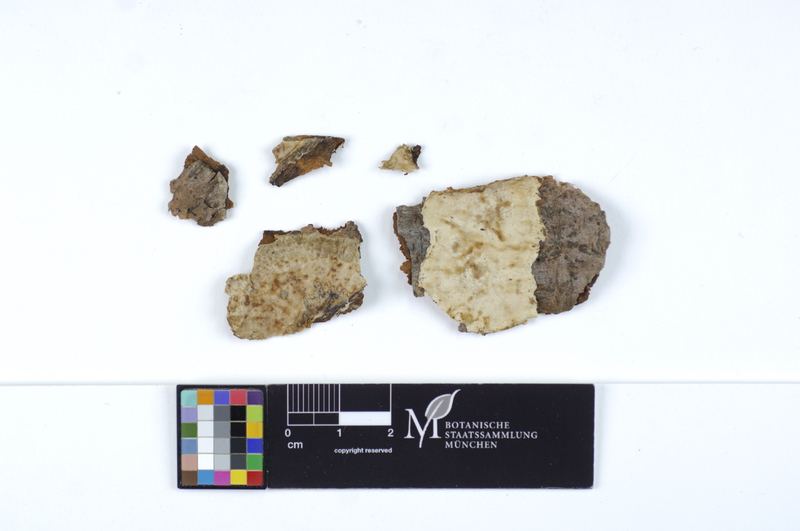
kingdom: Fungi
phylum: Basidiomycota
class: Agaricomycetes
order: Agaricales
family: Cyphellaceae
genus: Chondrostereum
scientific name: Chondrostereum purpureum
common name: Silver leaf disease
